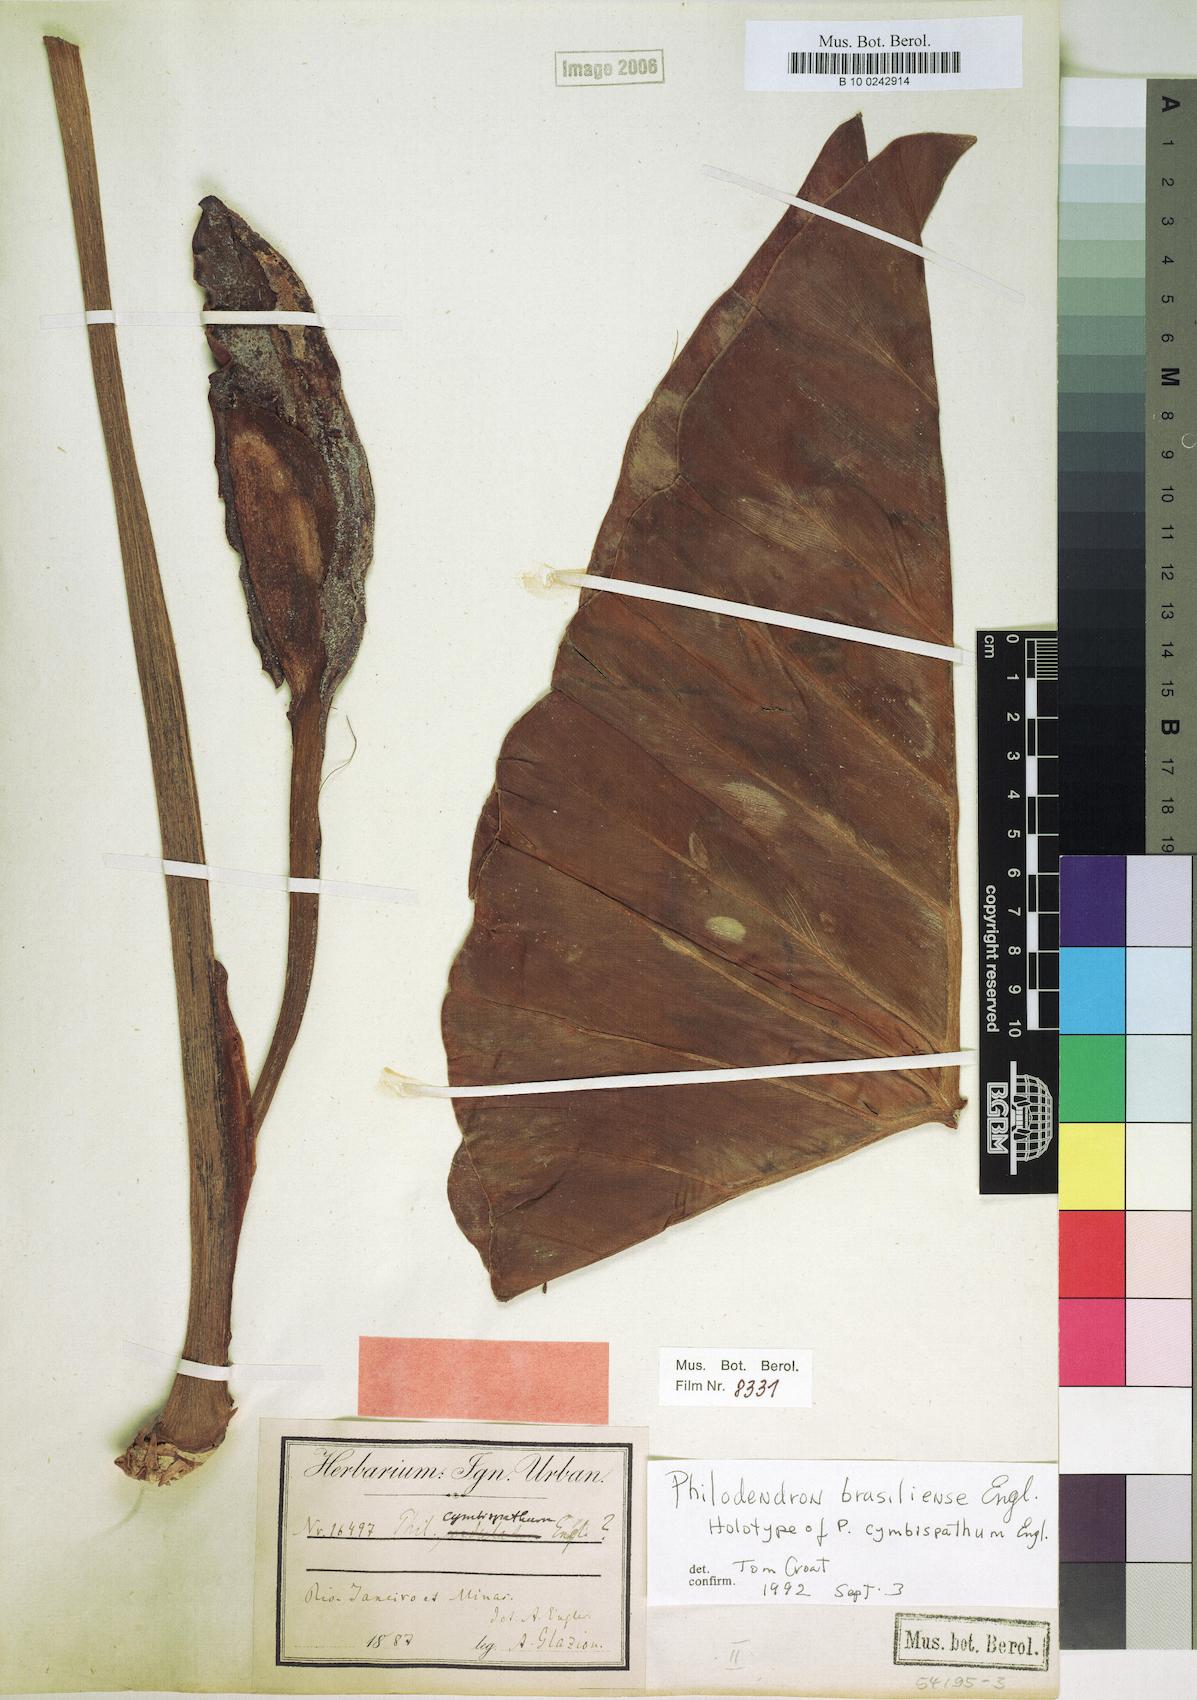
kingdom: Plantae
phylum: Tracheophyta
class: Liliopsida
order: Alismatales
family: Araceae
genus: Thaumatophyllum
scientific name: Thaumatophyllum brasiliense
